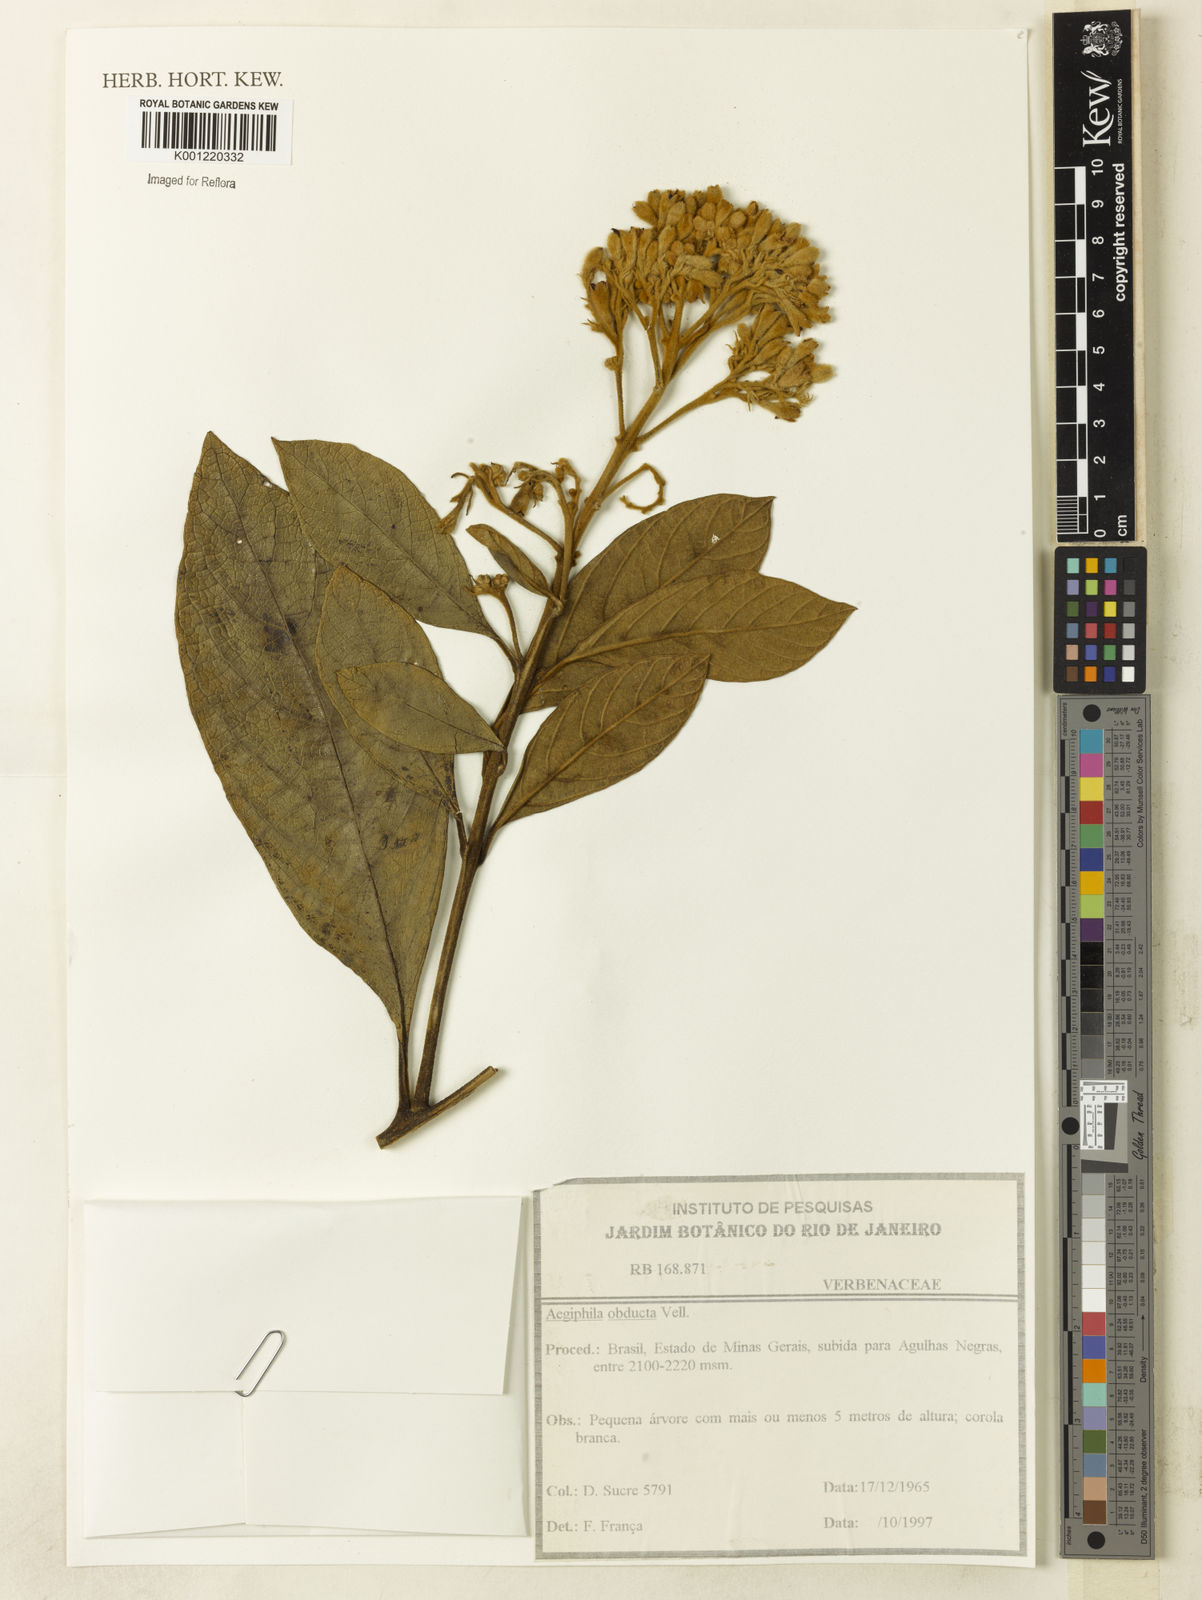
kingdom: Plantae
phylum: Tracheophyta
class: Magnoliopsida
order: Lamiales
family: Lamiaceae
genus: Aegiphila
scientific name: Aegiphila obducta
